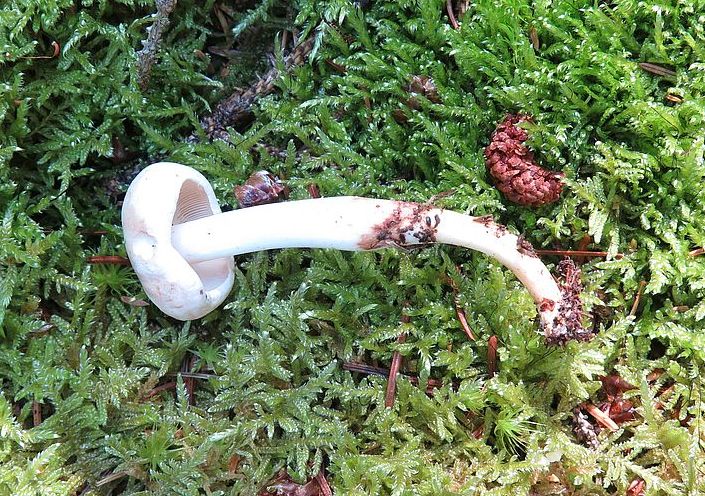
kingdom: Fungi
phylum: Basidiomycota
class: Agaricomycetes
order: Agaricales
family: Omphalotaceae
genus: Rhodocollybia
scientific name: Rhodocollybia maculata
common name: plettet fladhat
